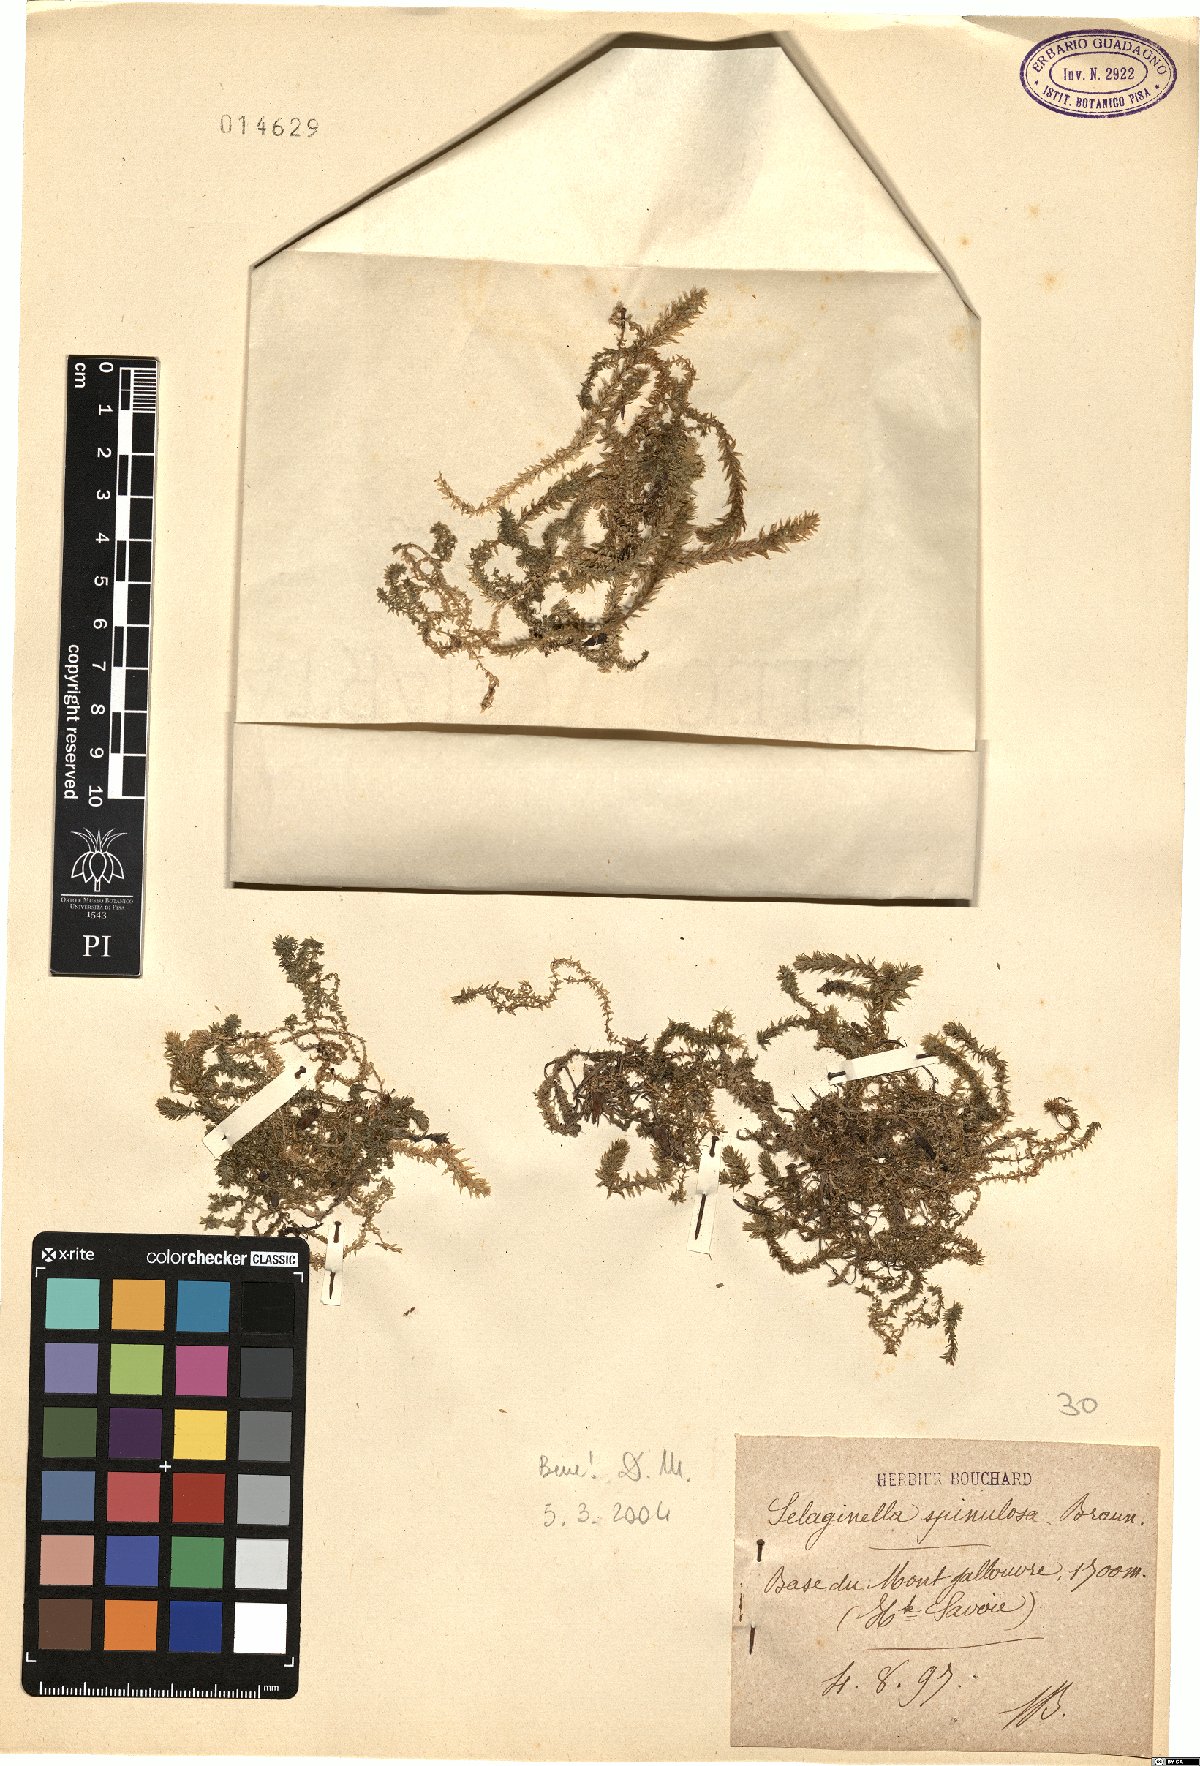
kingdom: Plantae
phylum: Tracheophyta
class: Lycopodiopsida
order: Selaginellales
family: Selaginellaceae
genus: Selaginella
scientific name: Selaginella selaginoides
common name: Prickly mountain-moss
